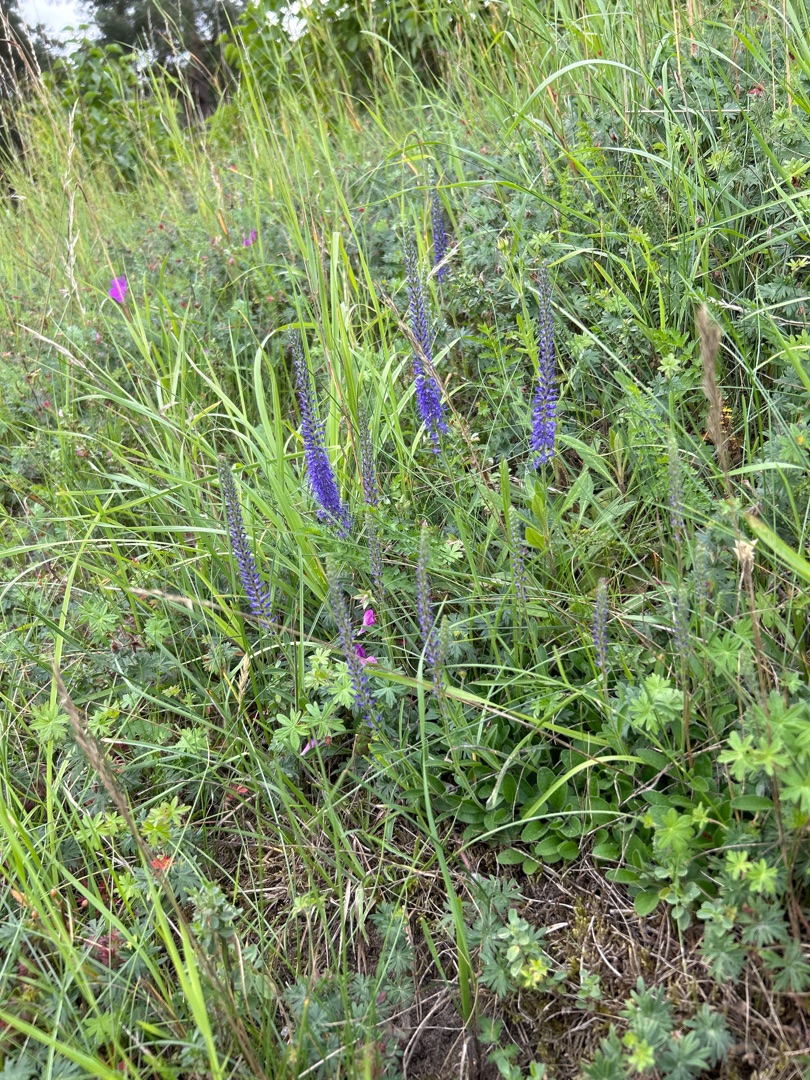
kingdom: Plantae
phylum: Tracheophyta
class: Magnoliopsida
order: Lamiales
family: Plantaginaceae
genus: Veronica
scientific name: Veronica spicata
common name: Aks-ærenpris
